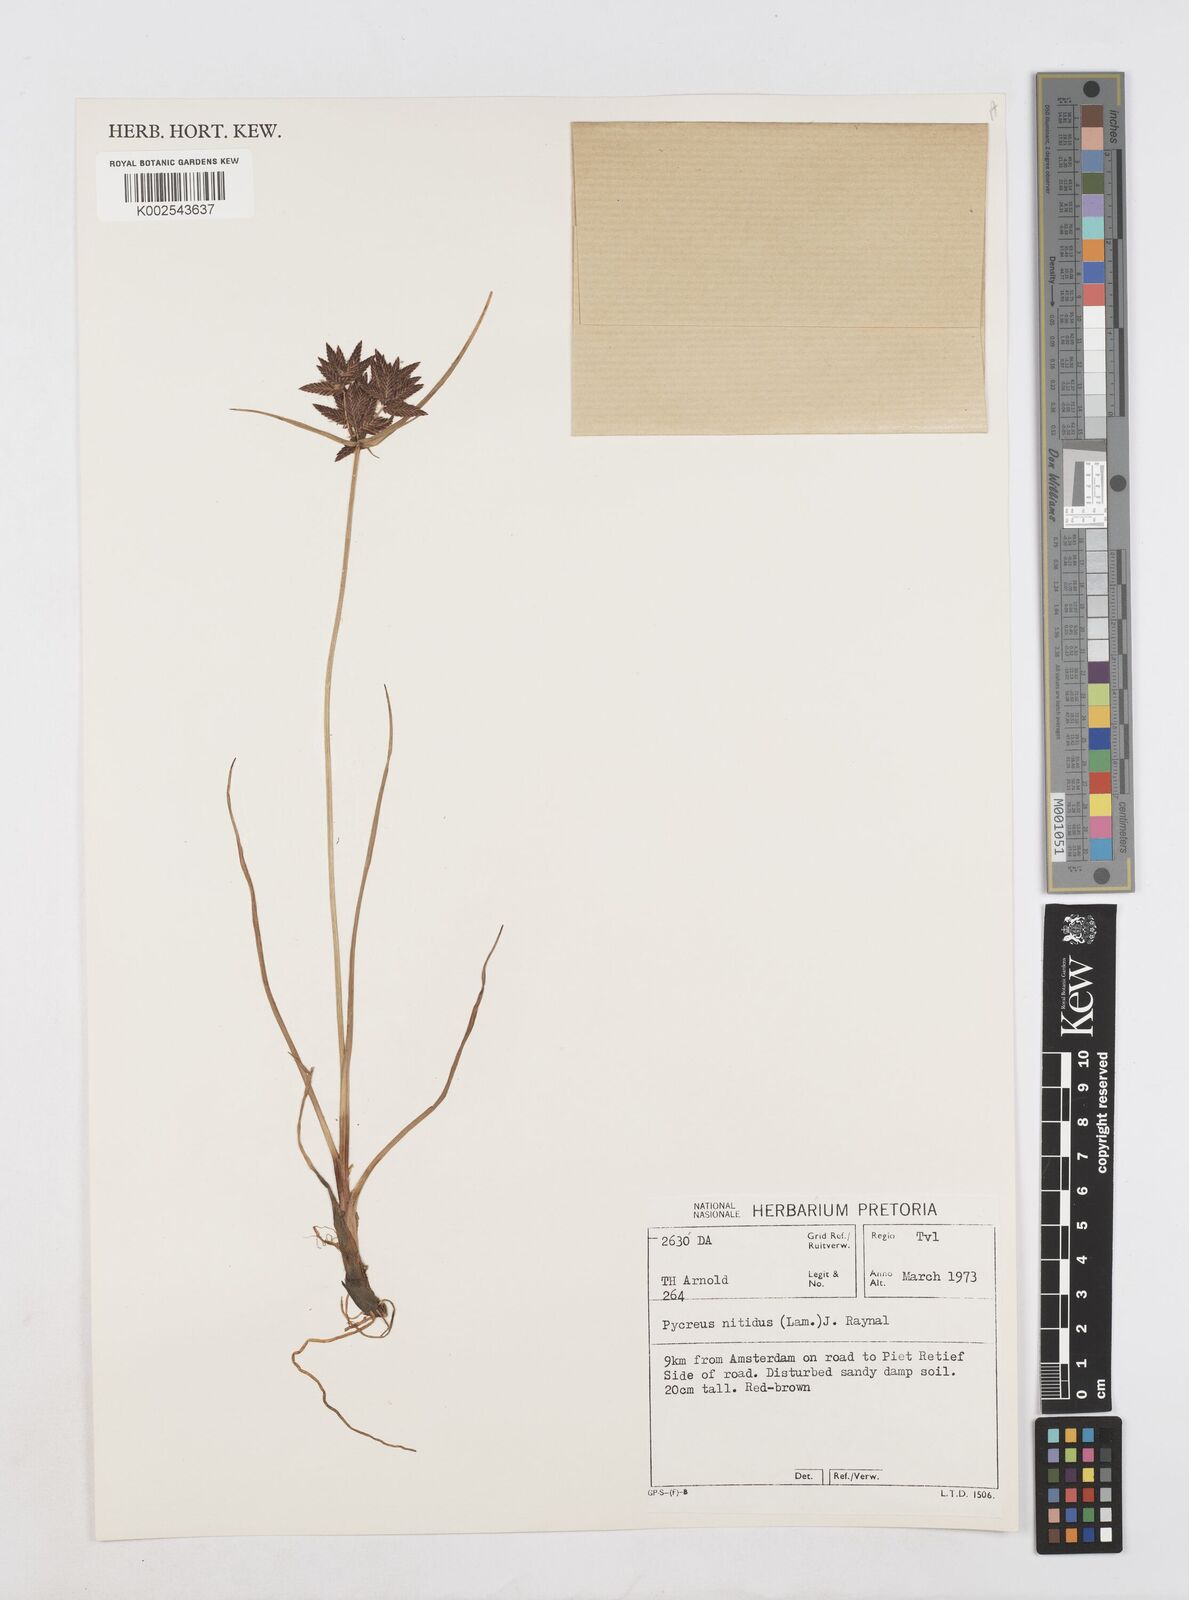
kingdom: Plantae
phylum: Tracheophyta
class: Liliopsida
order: Poales
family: Cyperaceae
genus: Cyperus
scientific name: Cyperus nitidus
